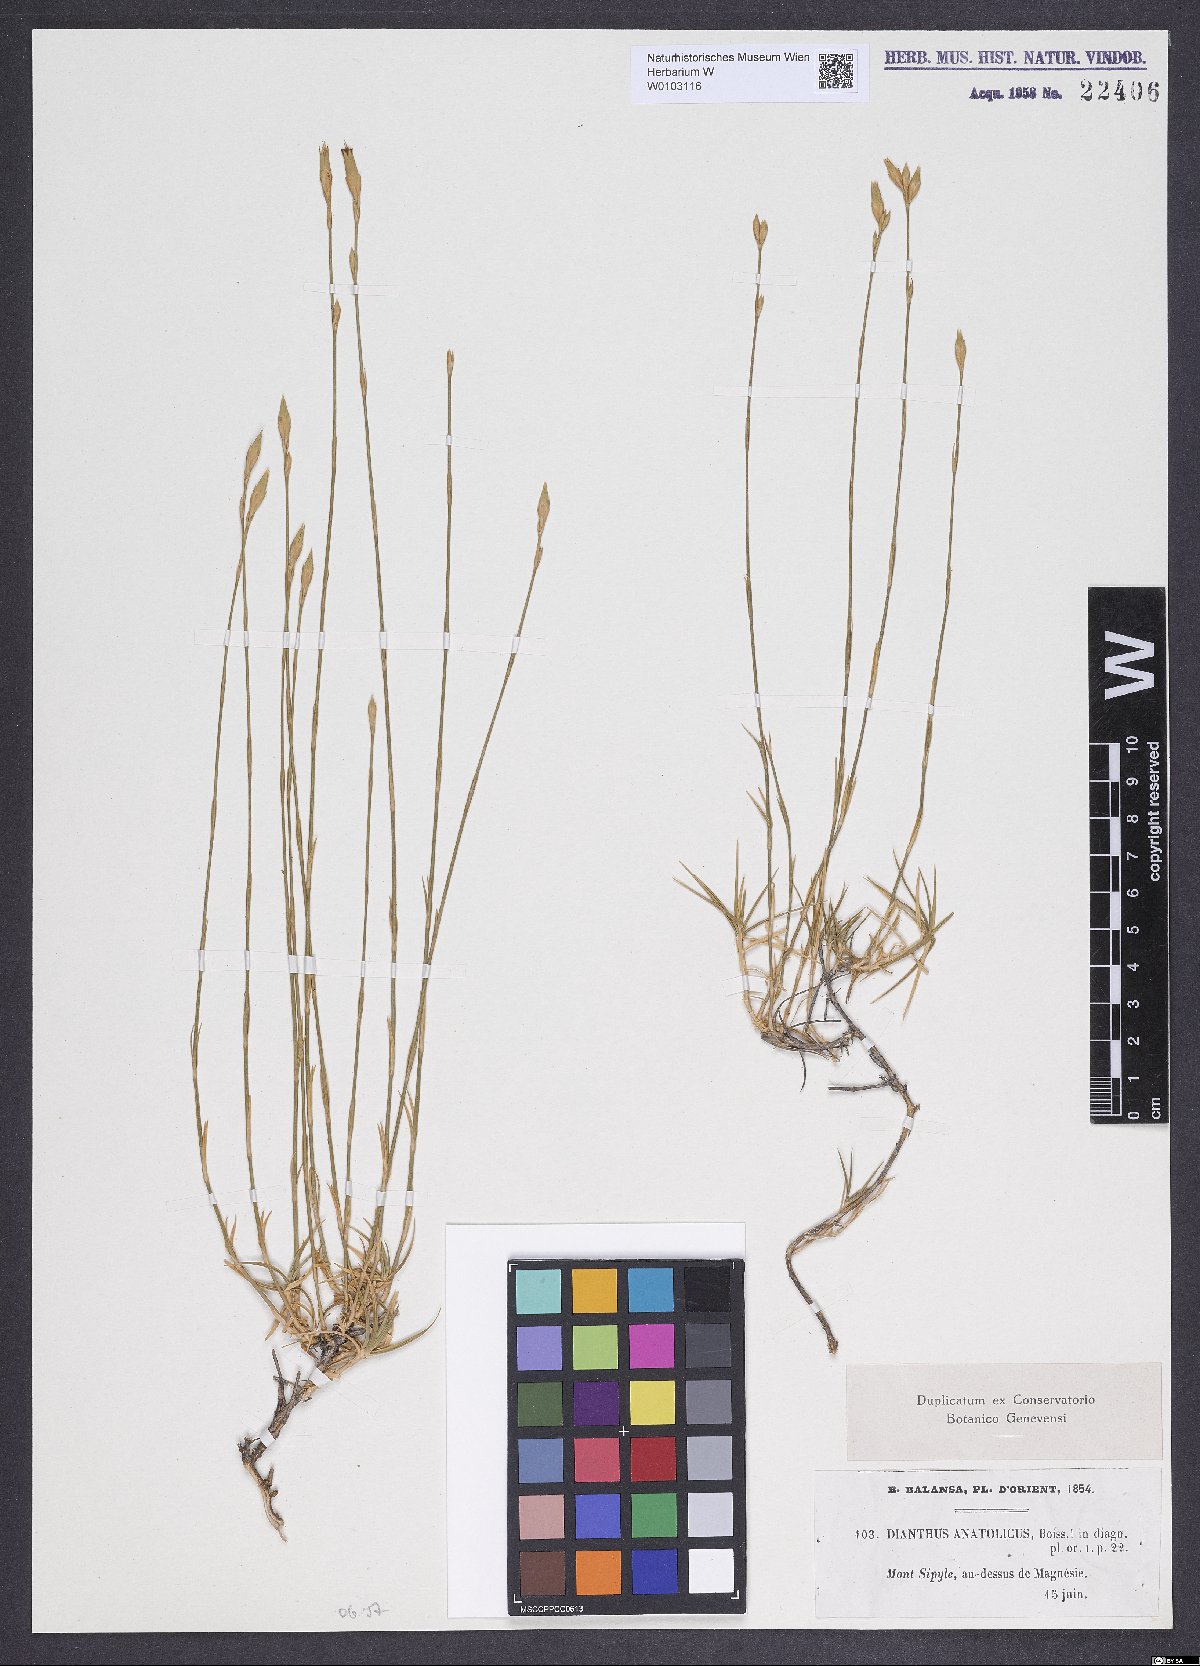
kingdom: Plantae
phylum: Tracheophyta
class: Magnoliopsida
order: Caryophyllales
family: Caryophyllaceae
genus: Dianthus
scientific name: Dianthus anatolicus
